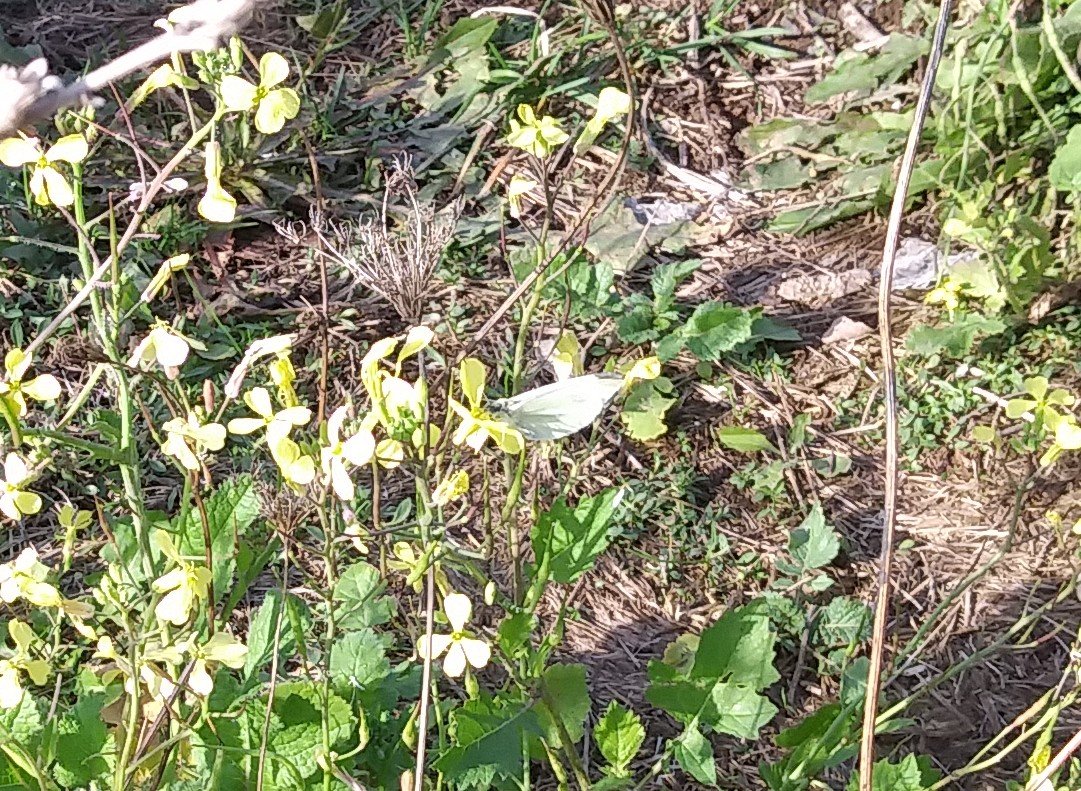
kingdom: Animalia
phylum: Arthropoda
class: Insecta
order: Lepidoptera
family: Pieridae
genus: Pieris
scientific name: Pieris rapae
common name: Cabbage White
